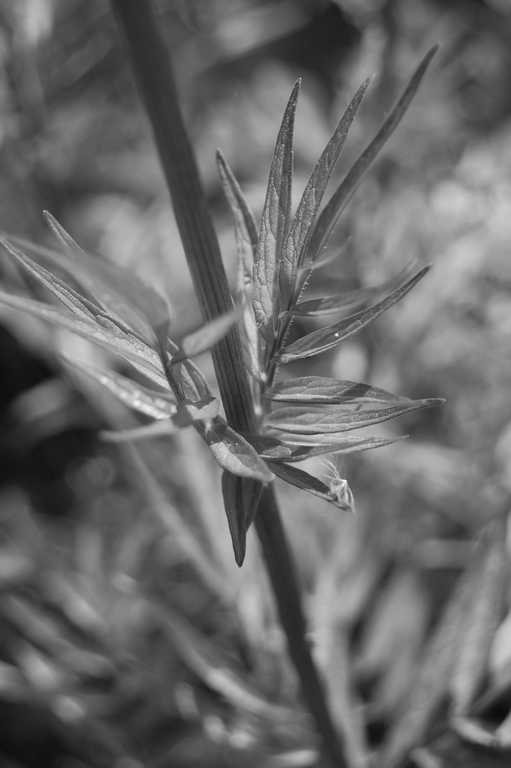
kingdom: Plantae
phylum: Tracheophyta
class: Magnoliopsida
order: Dipsacales
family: Caprifoliaceae
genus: Valeriana
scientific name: Valeriana officinalis
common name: Common valerian
